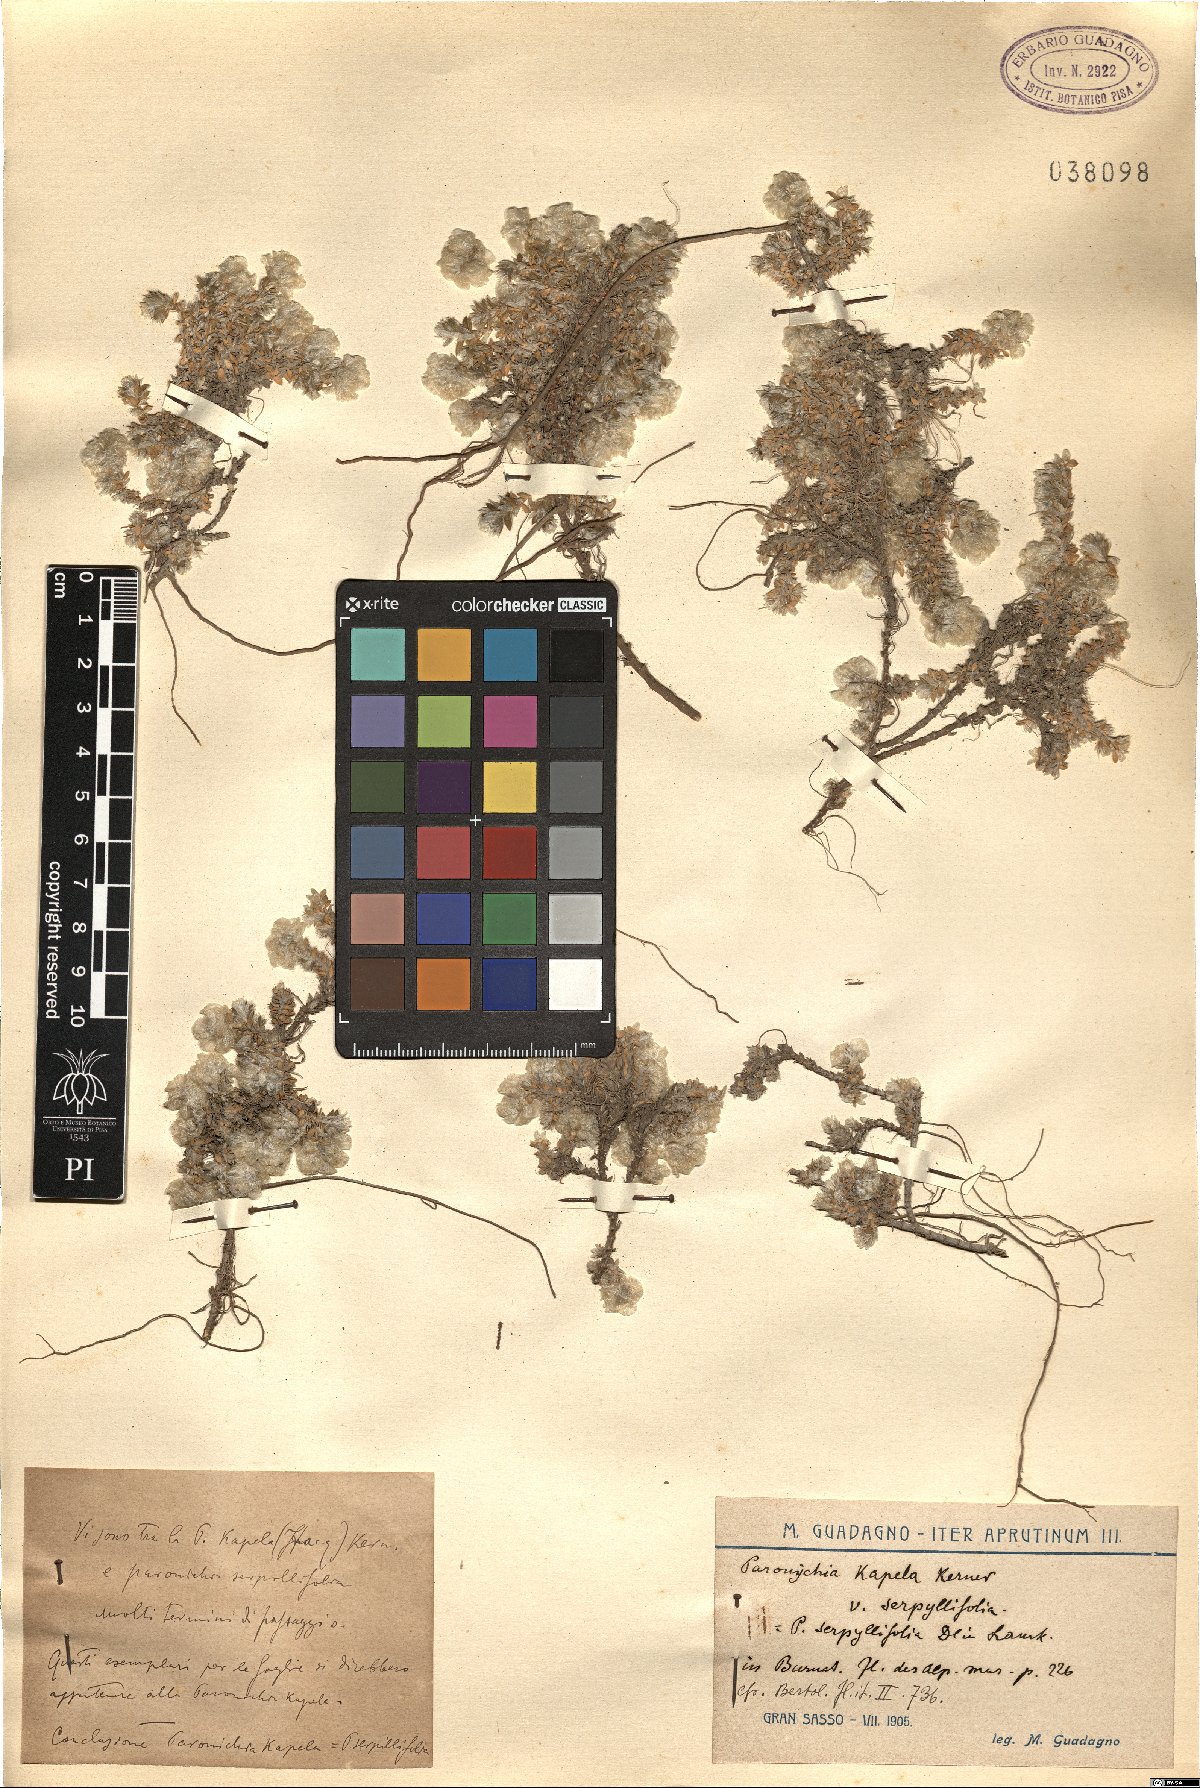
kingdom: Plantae
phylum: Tracheophyta
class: Magnoliopsida
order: Caryophyllales
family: Caryophyllaceae
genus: Paronychia
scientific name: Paronychia kapela
